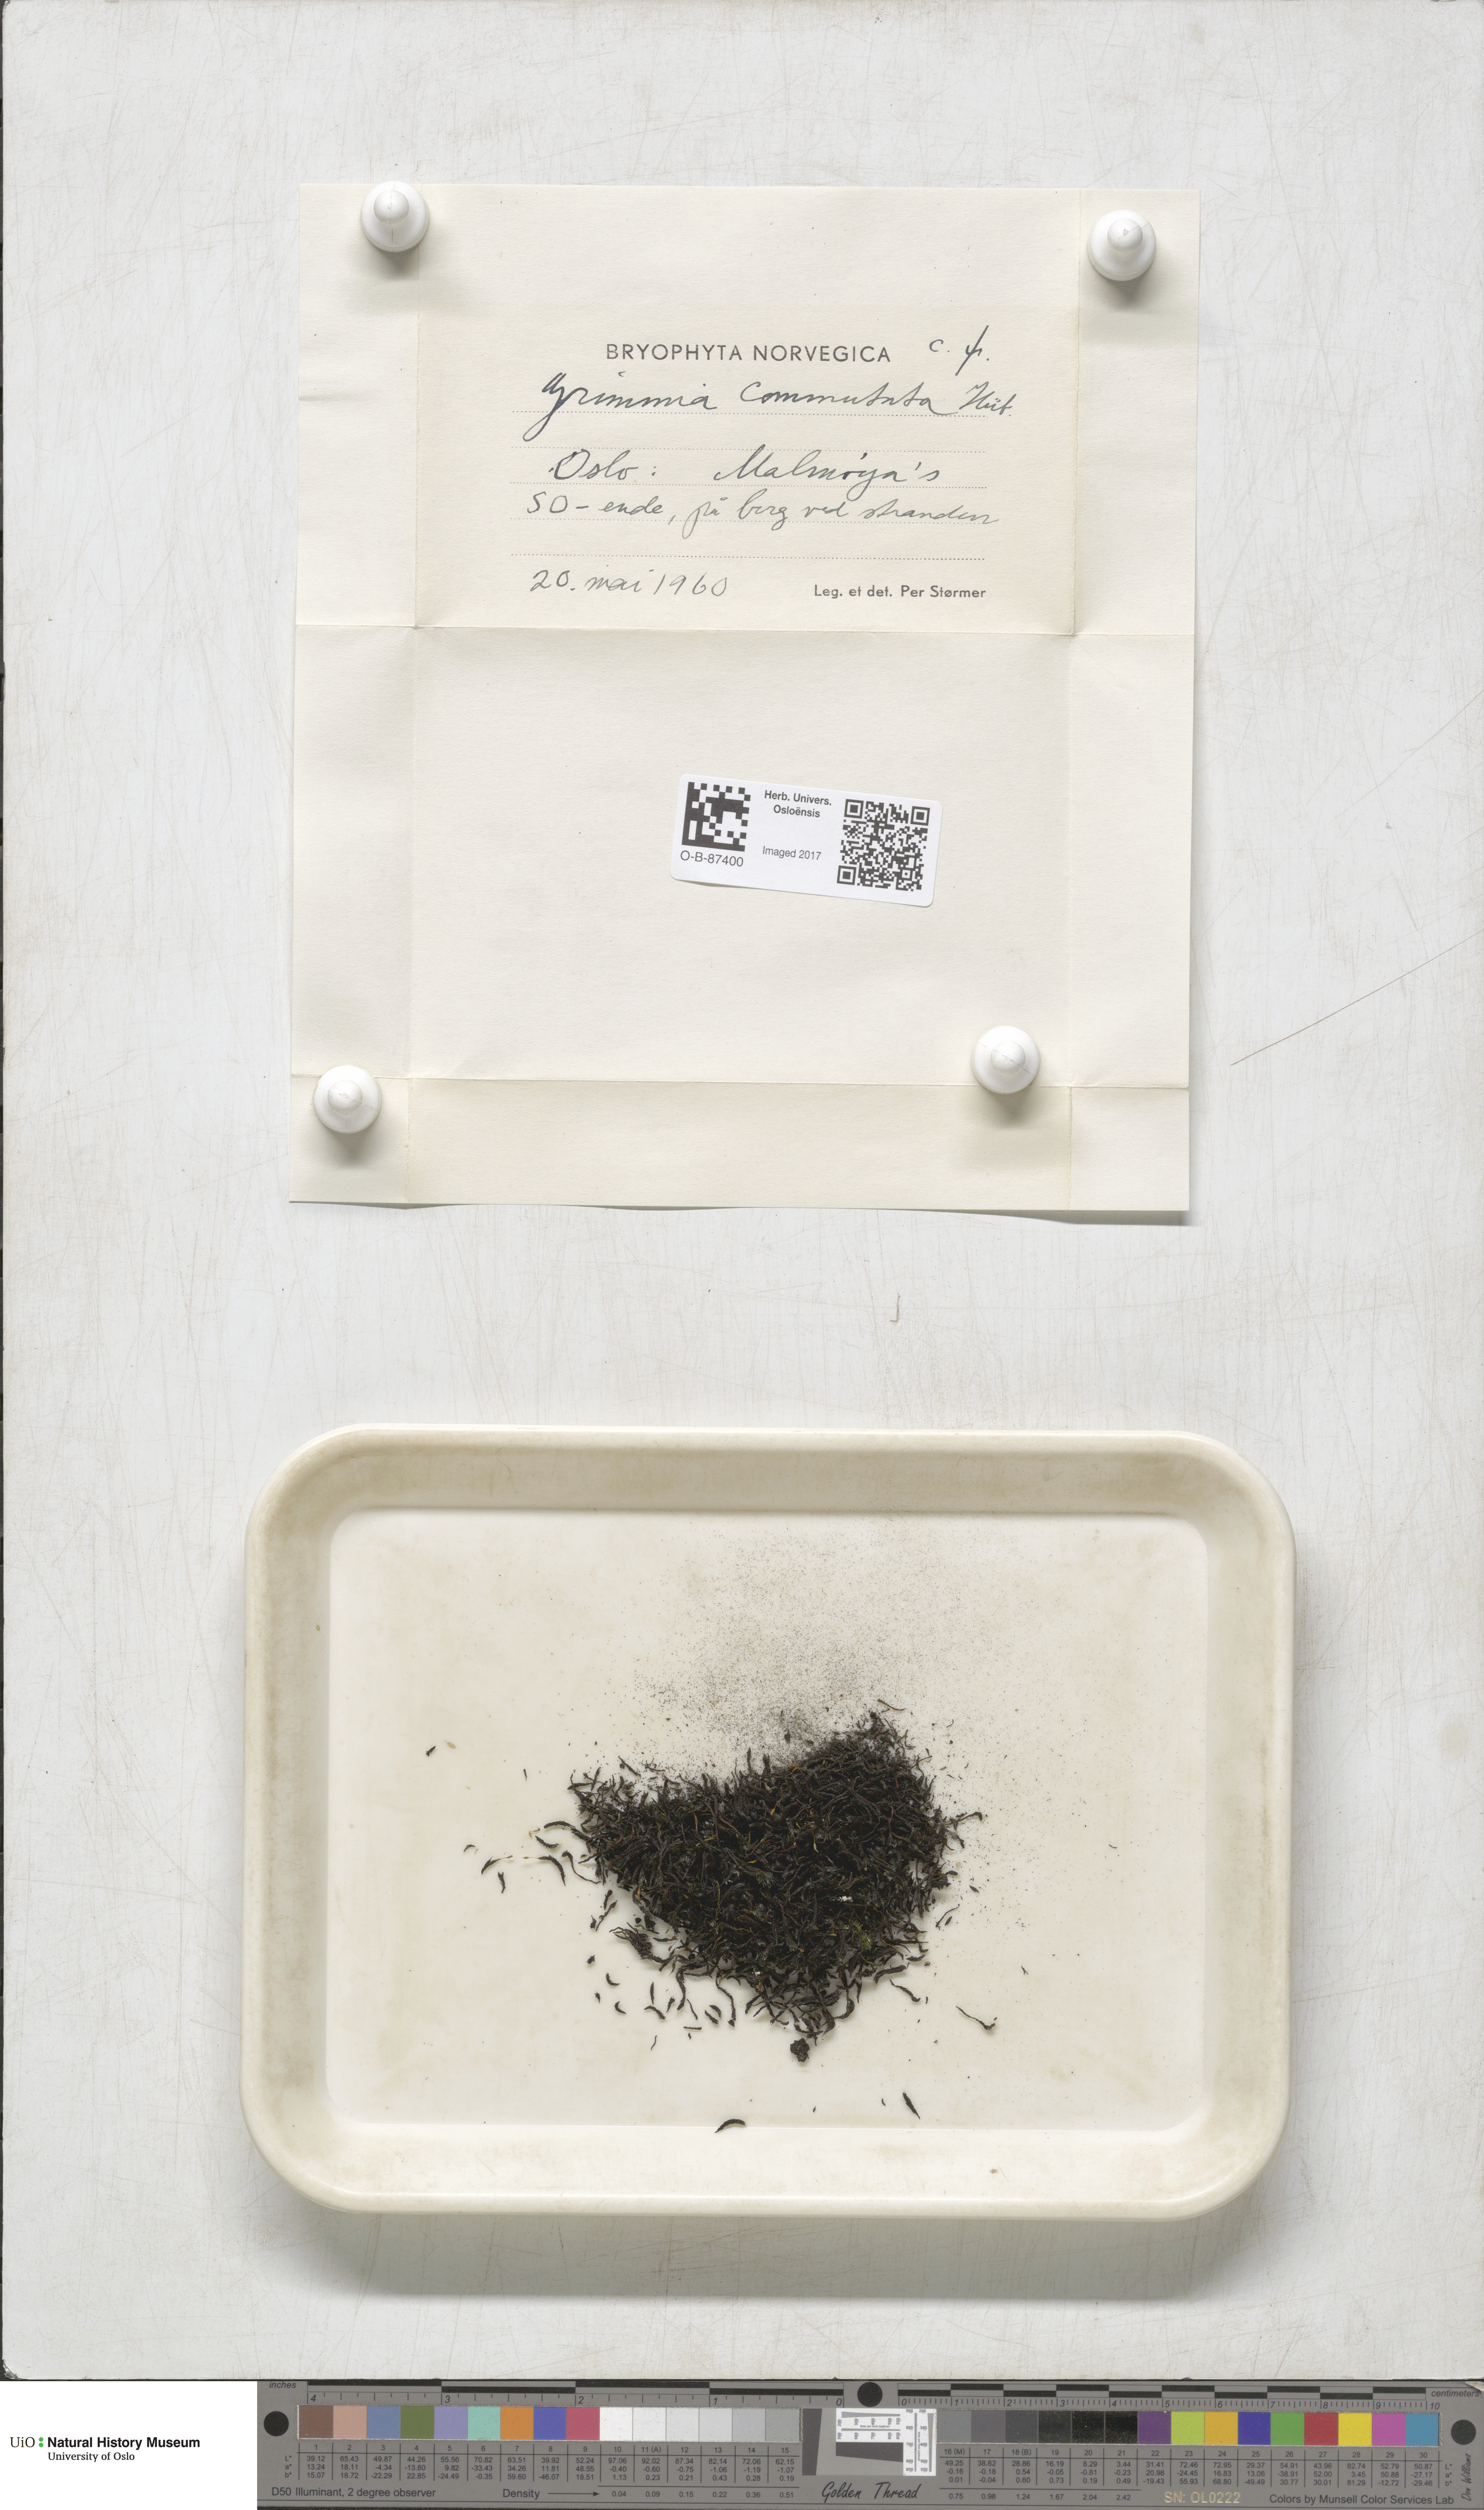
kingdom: Plantae
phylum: Bryophyta
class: Bryopsida
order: Grimmiales
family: Grimmiaceae
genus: Grimmia
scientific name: Grimmia ovalis
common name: Oval grimmia
